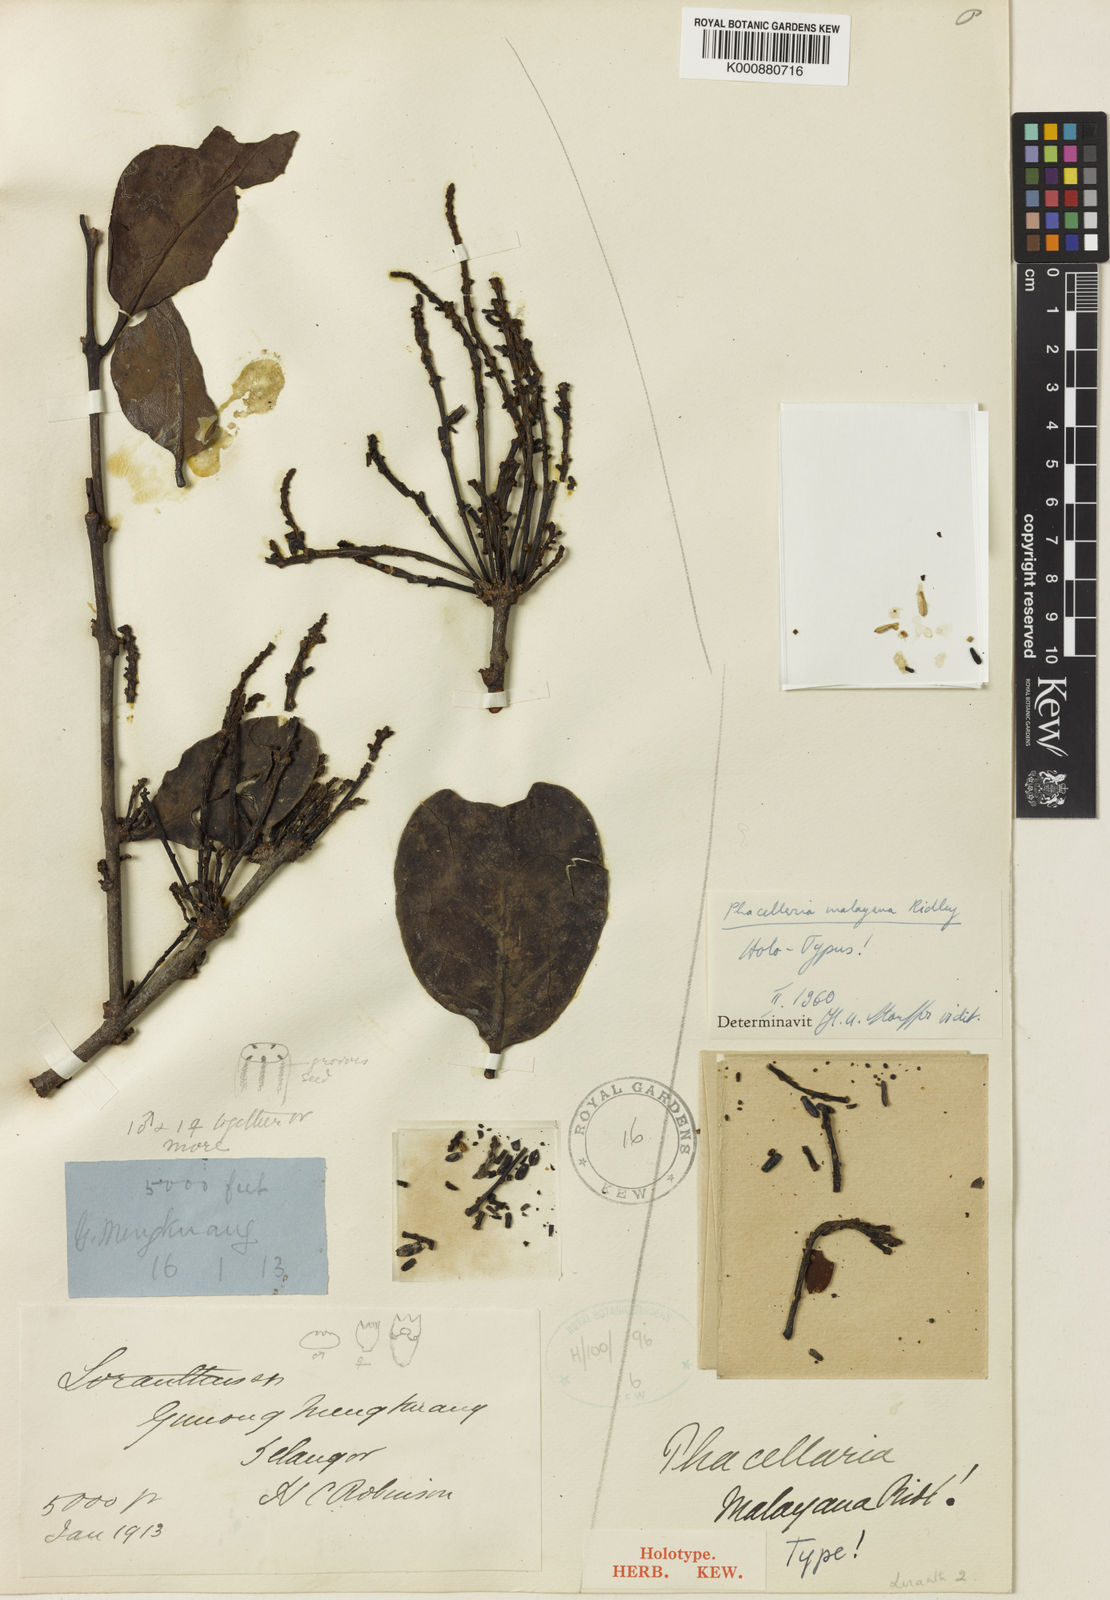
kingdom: Plantae
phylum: Tracheophyta
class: Magnoliopsida
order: Santalales
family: Amphorogynaceae
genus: Phacellaria
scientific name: Phacellaria malayana
